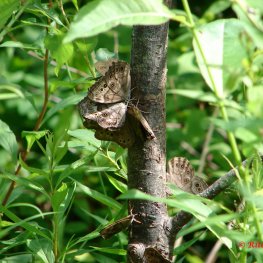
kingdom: Animalia
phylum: Arthropoda
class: Insecta
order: Lepidoptera
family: Nymphalidae
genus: Lethe
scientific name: Lethe anthedon
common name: Northern Pearly-Eye
